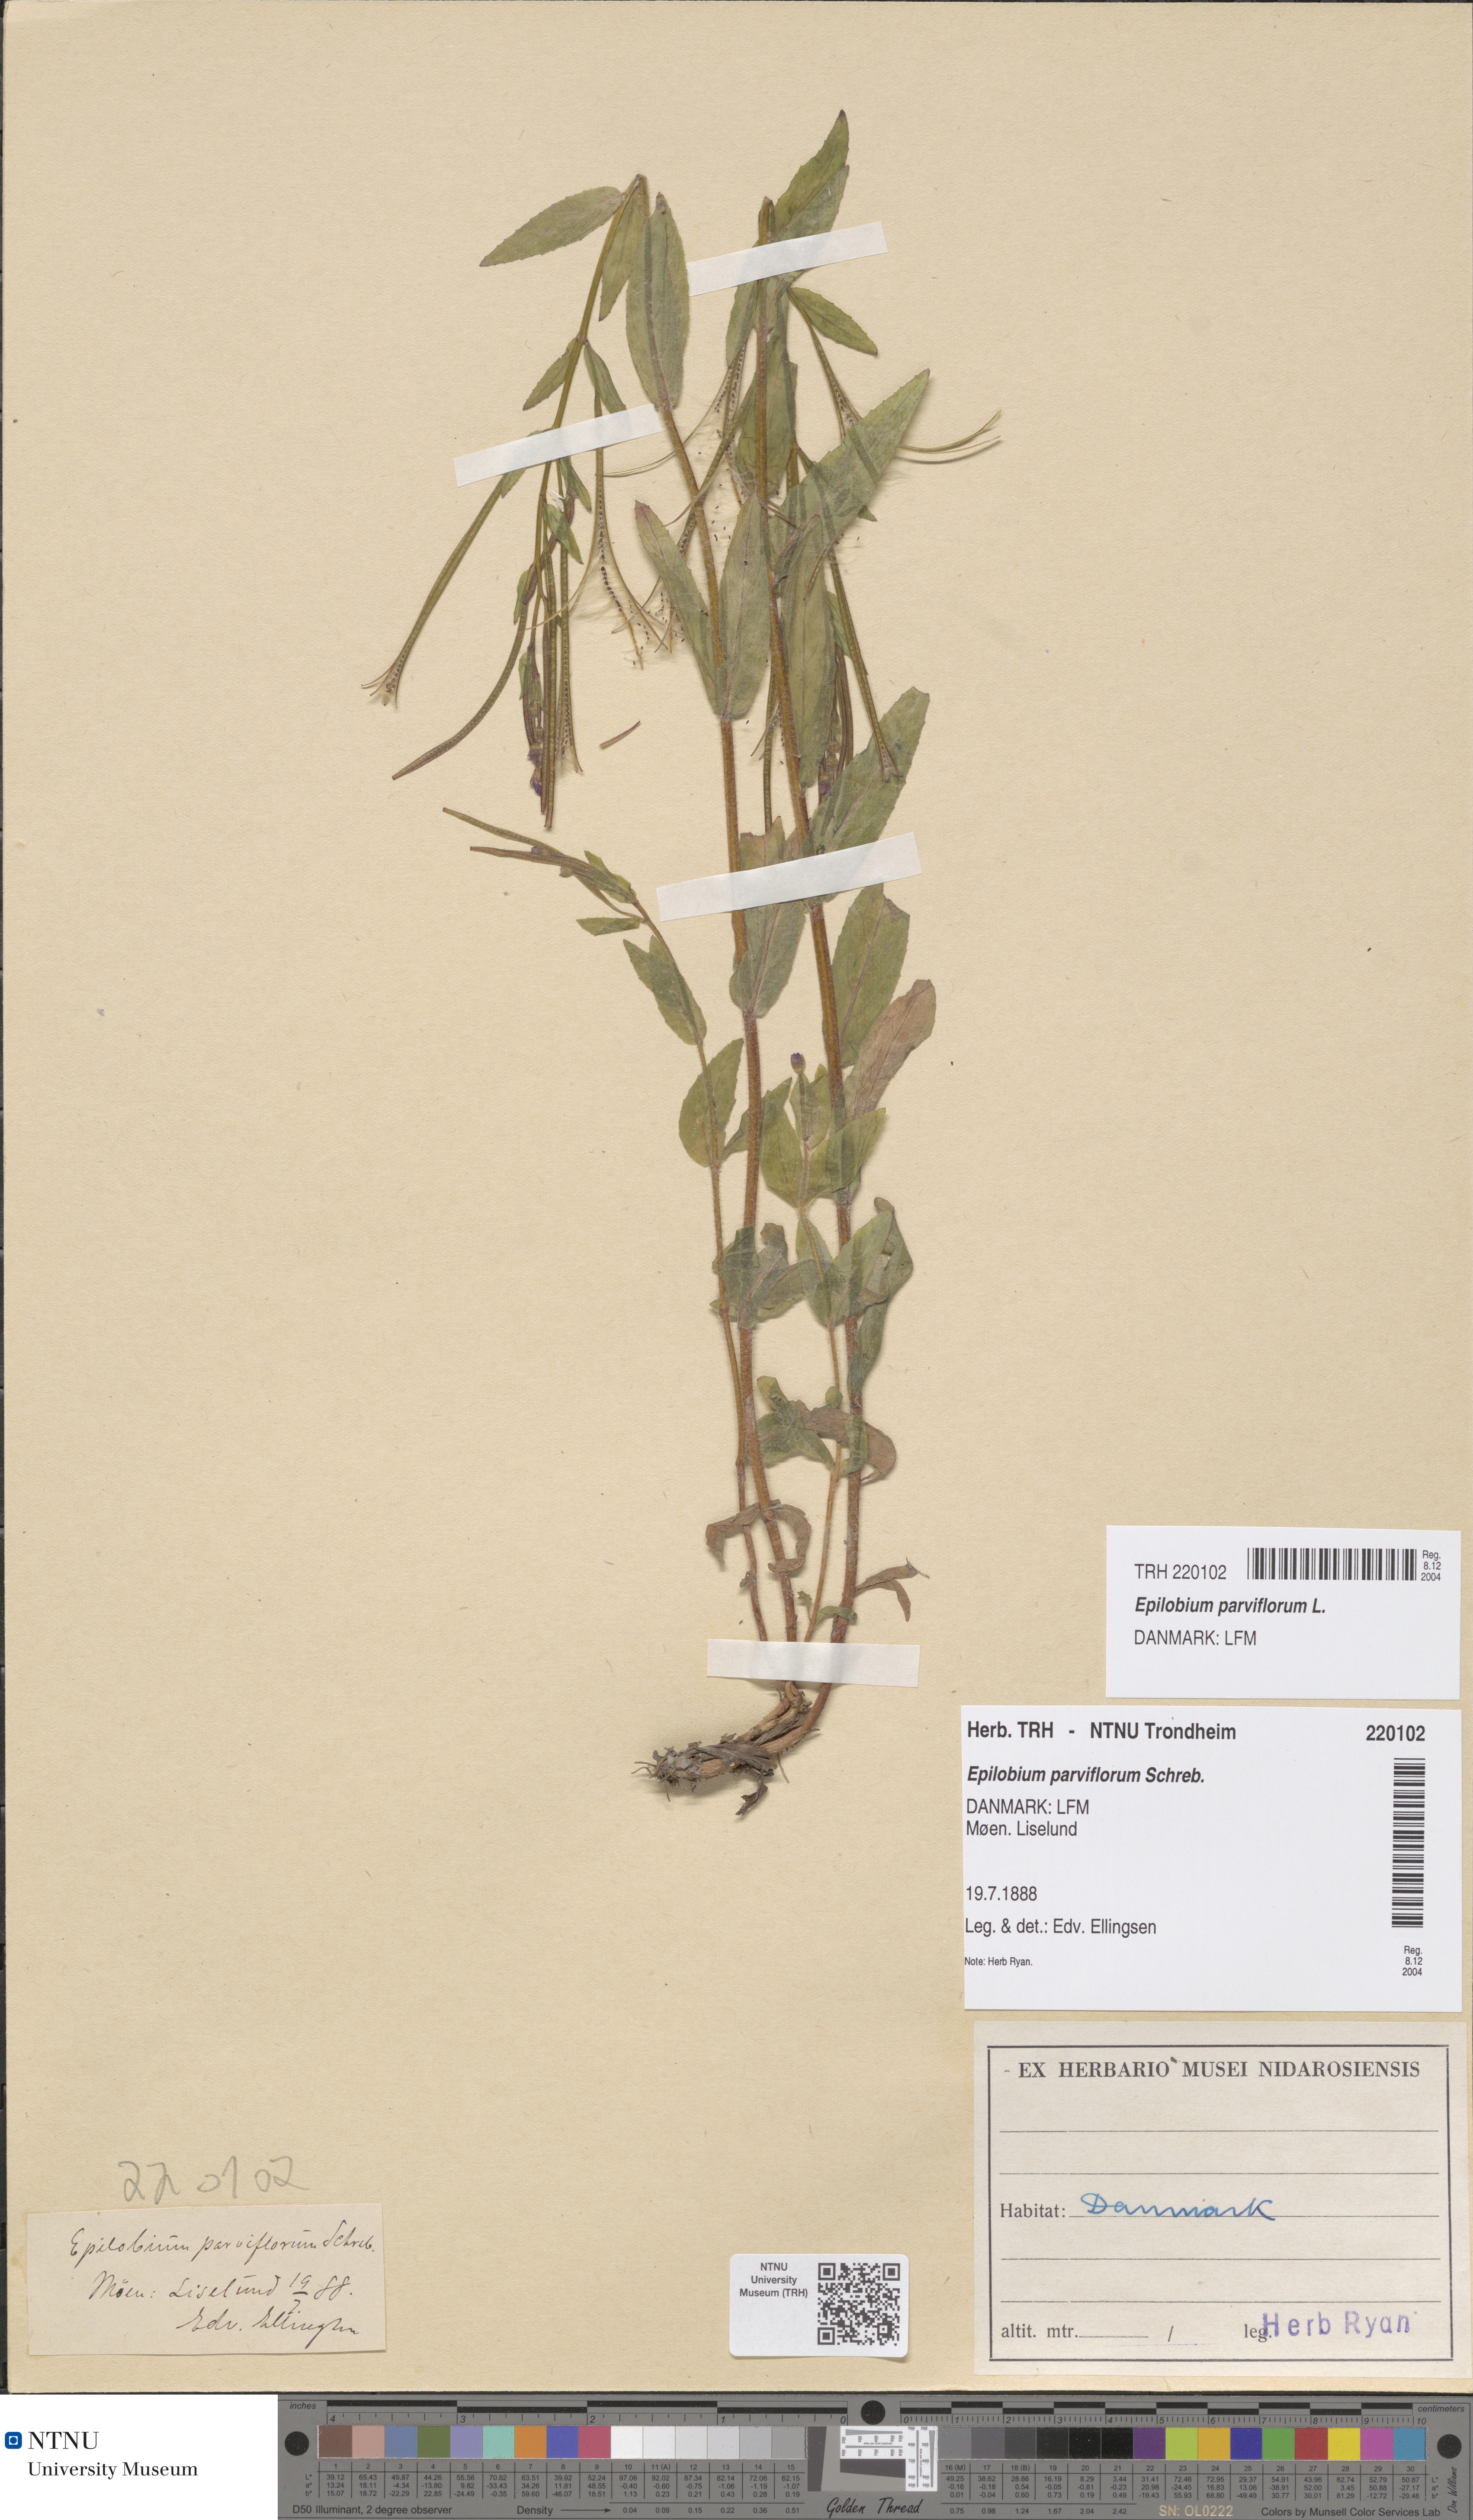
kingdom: Plantae
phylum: Tracheophyta
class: Magnoliopsida
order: Myrtales
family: Onagraceae
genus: Epilobium
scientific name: Epilobium parviflorum
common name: Hoary willowherb
